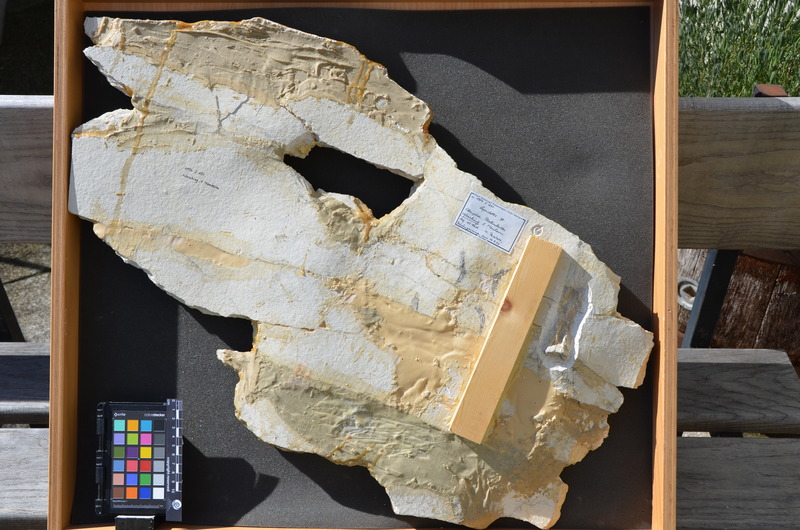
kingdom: Animalia
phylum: Chordata
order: Lepisosteiformes
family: Lepidotidae
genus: Lepidotes
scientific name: Lepidotes
